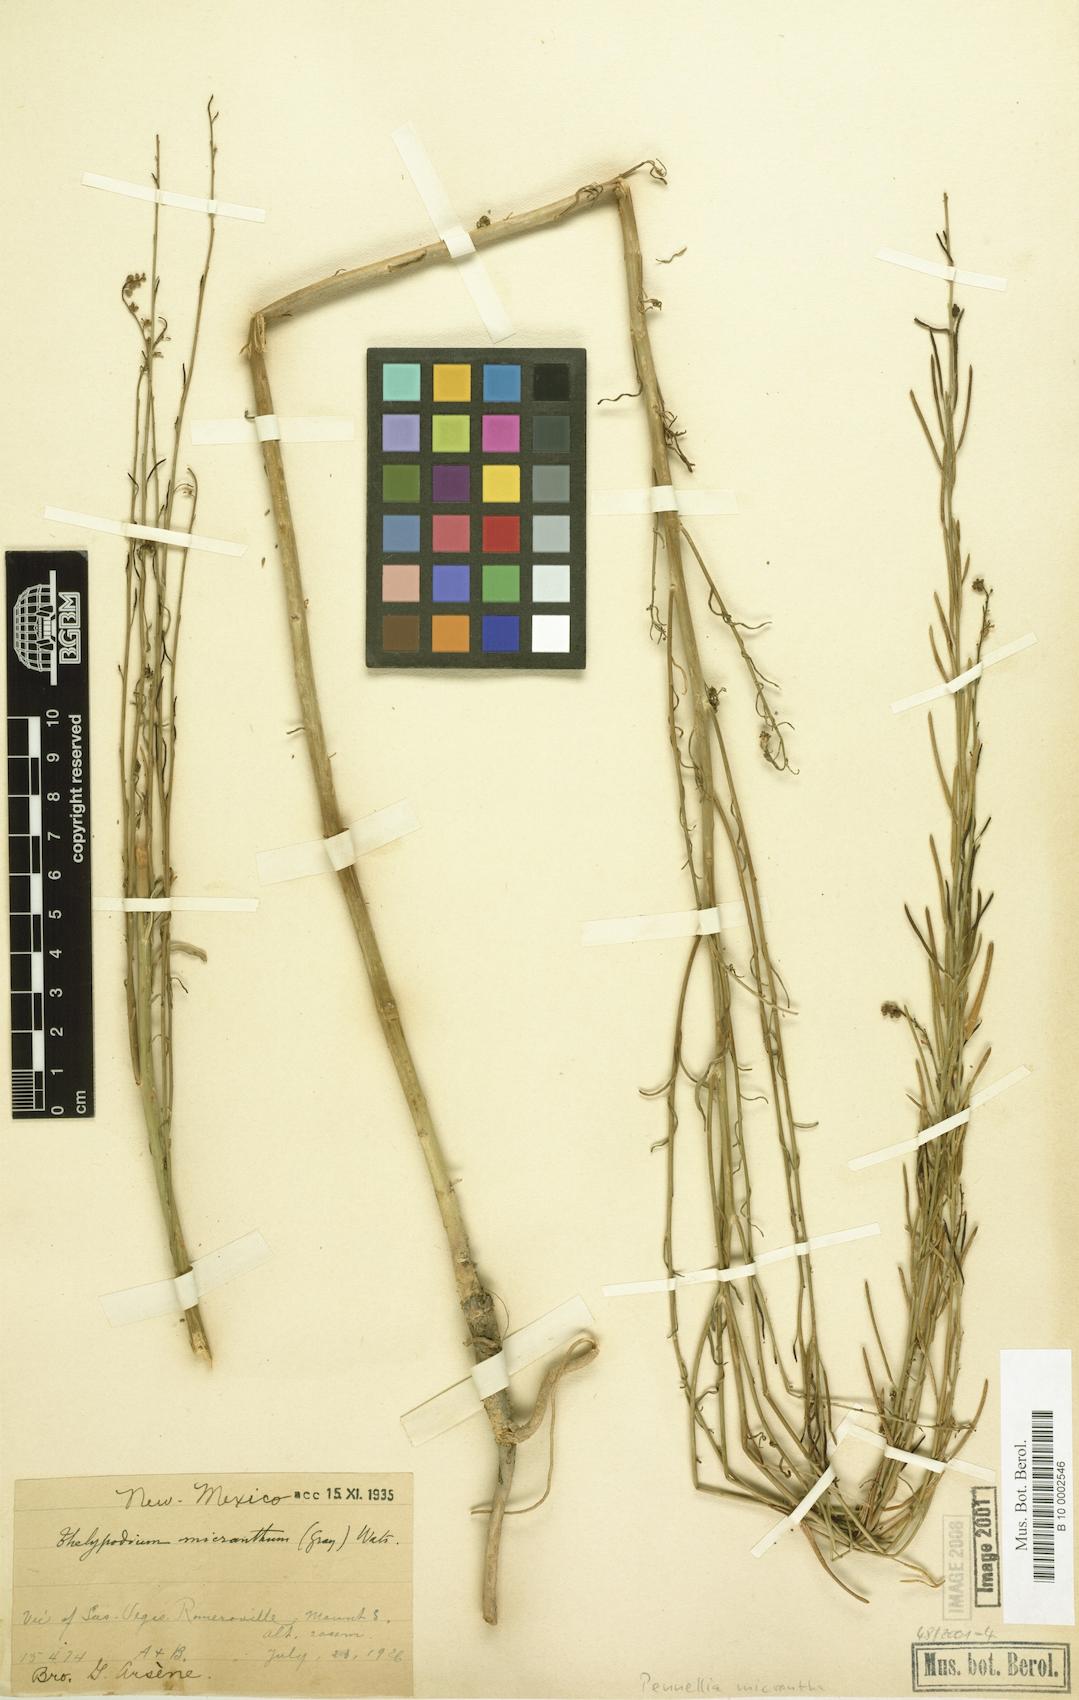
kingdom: Plantae
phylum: Tracheophyta
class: Magnoliopsida
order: Brassicales
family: Brassicaceae
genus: Pennellia
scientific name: Pennellia micrantha
